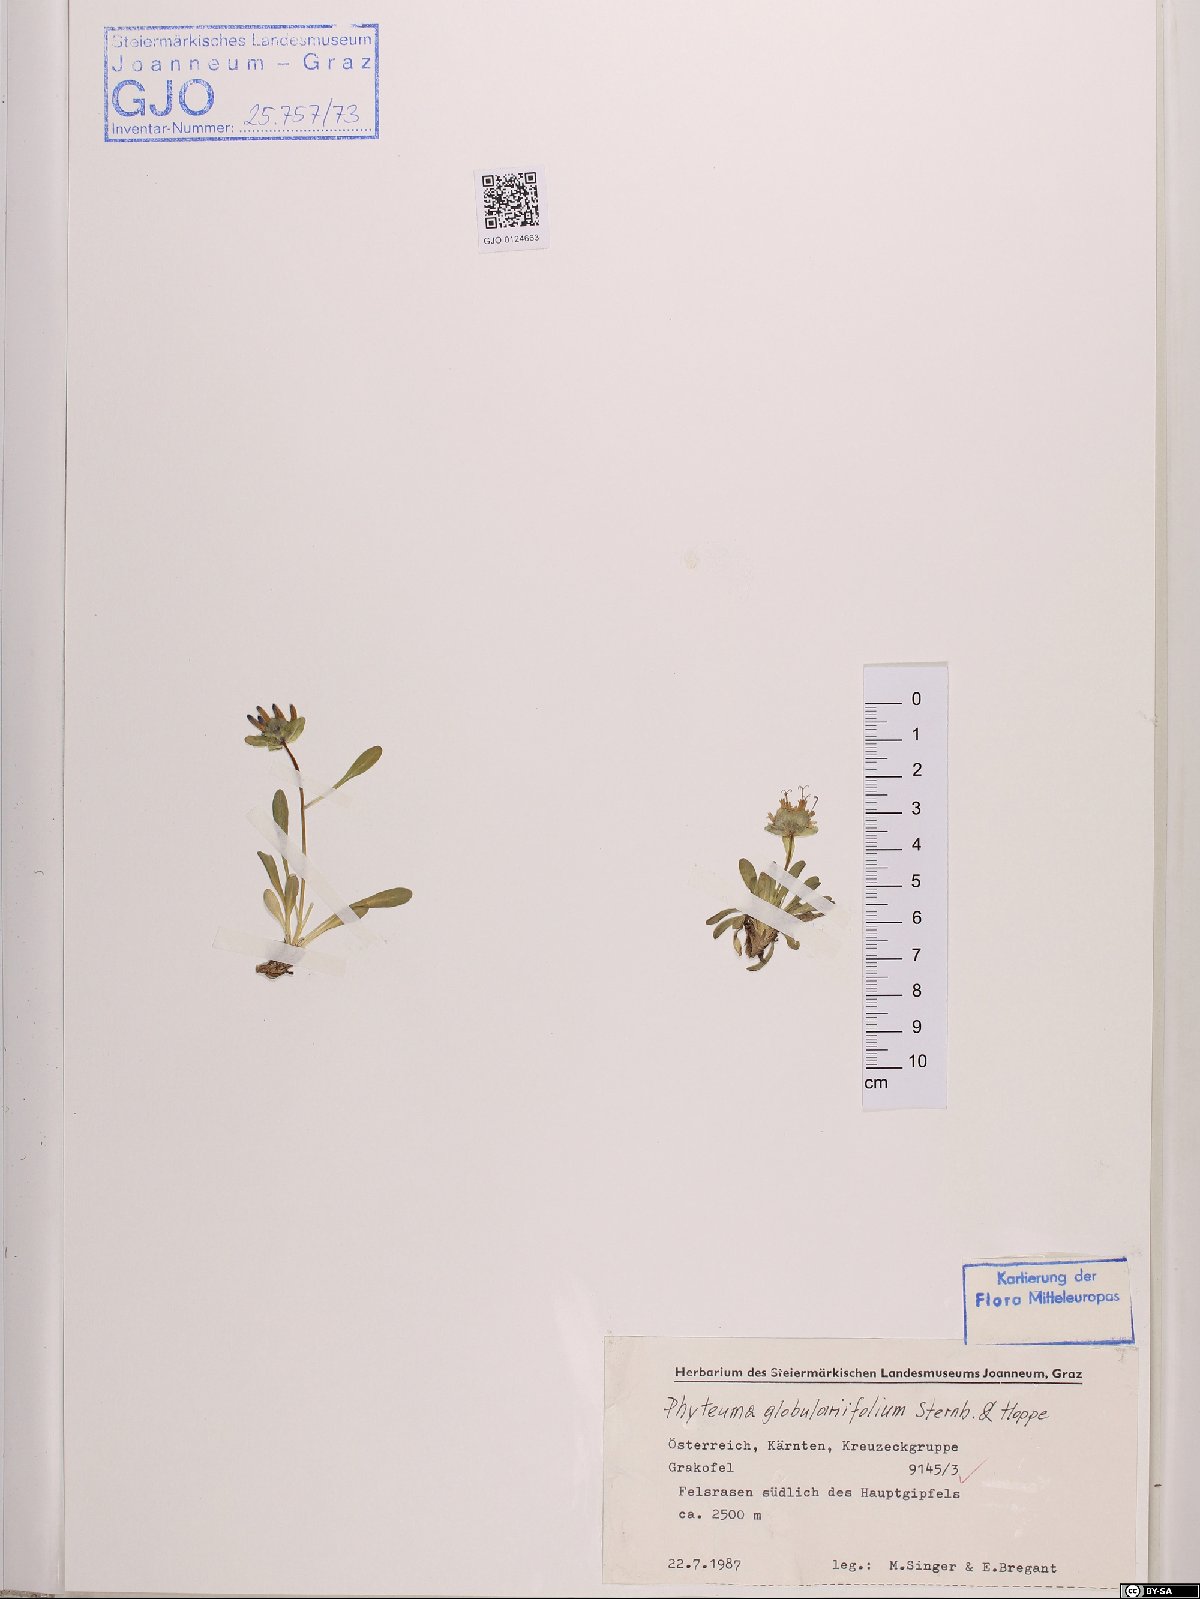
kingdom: Plantae
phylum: Tracheophyta
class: Magnoliopsida
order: Asterales
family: Campanulaceae
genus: Phyteuma
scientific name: Phyteuma globulariifolium
